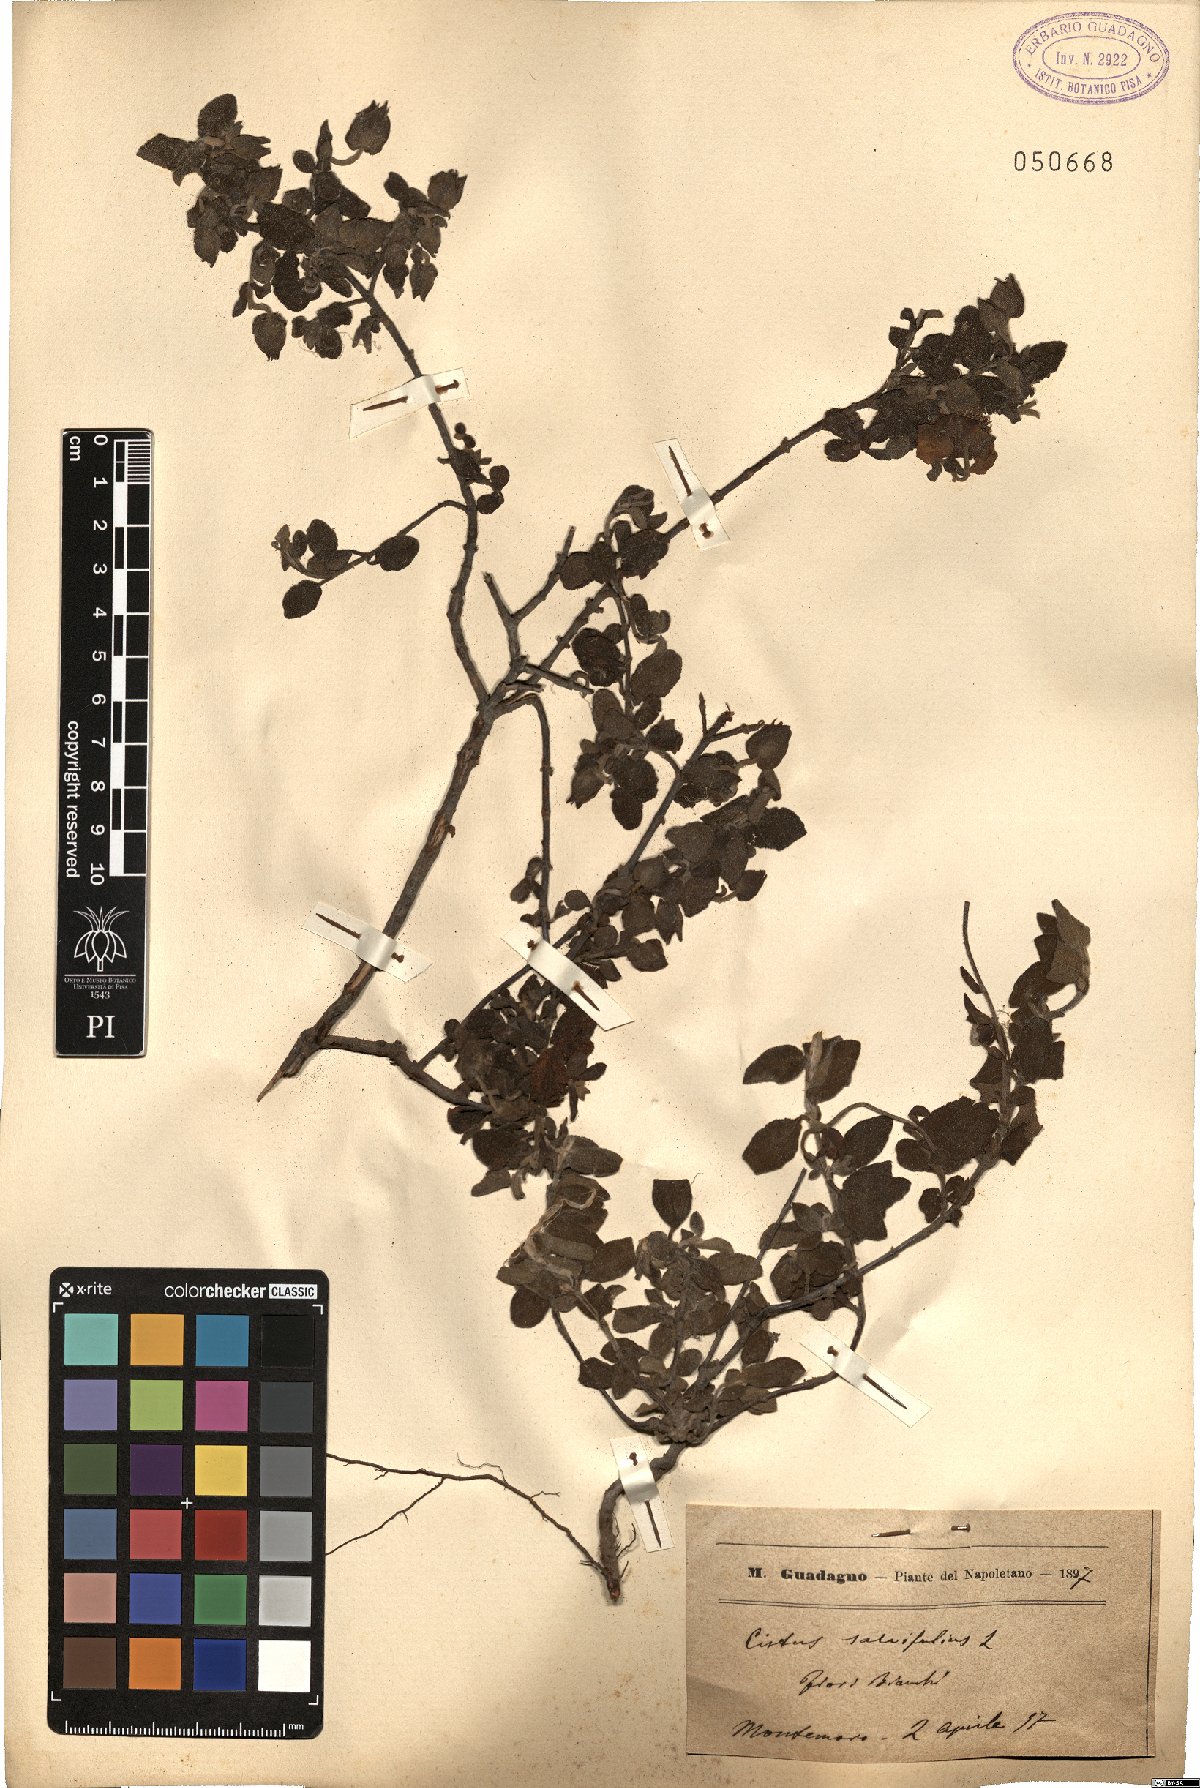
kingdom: Plantae
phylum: Tracheophyta
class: Magnoliopsida
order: Malvales
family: Cistaceae
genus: Cistus
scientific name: Cistus salviifolius
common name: Salvia cistus
